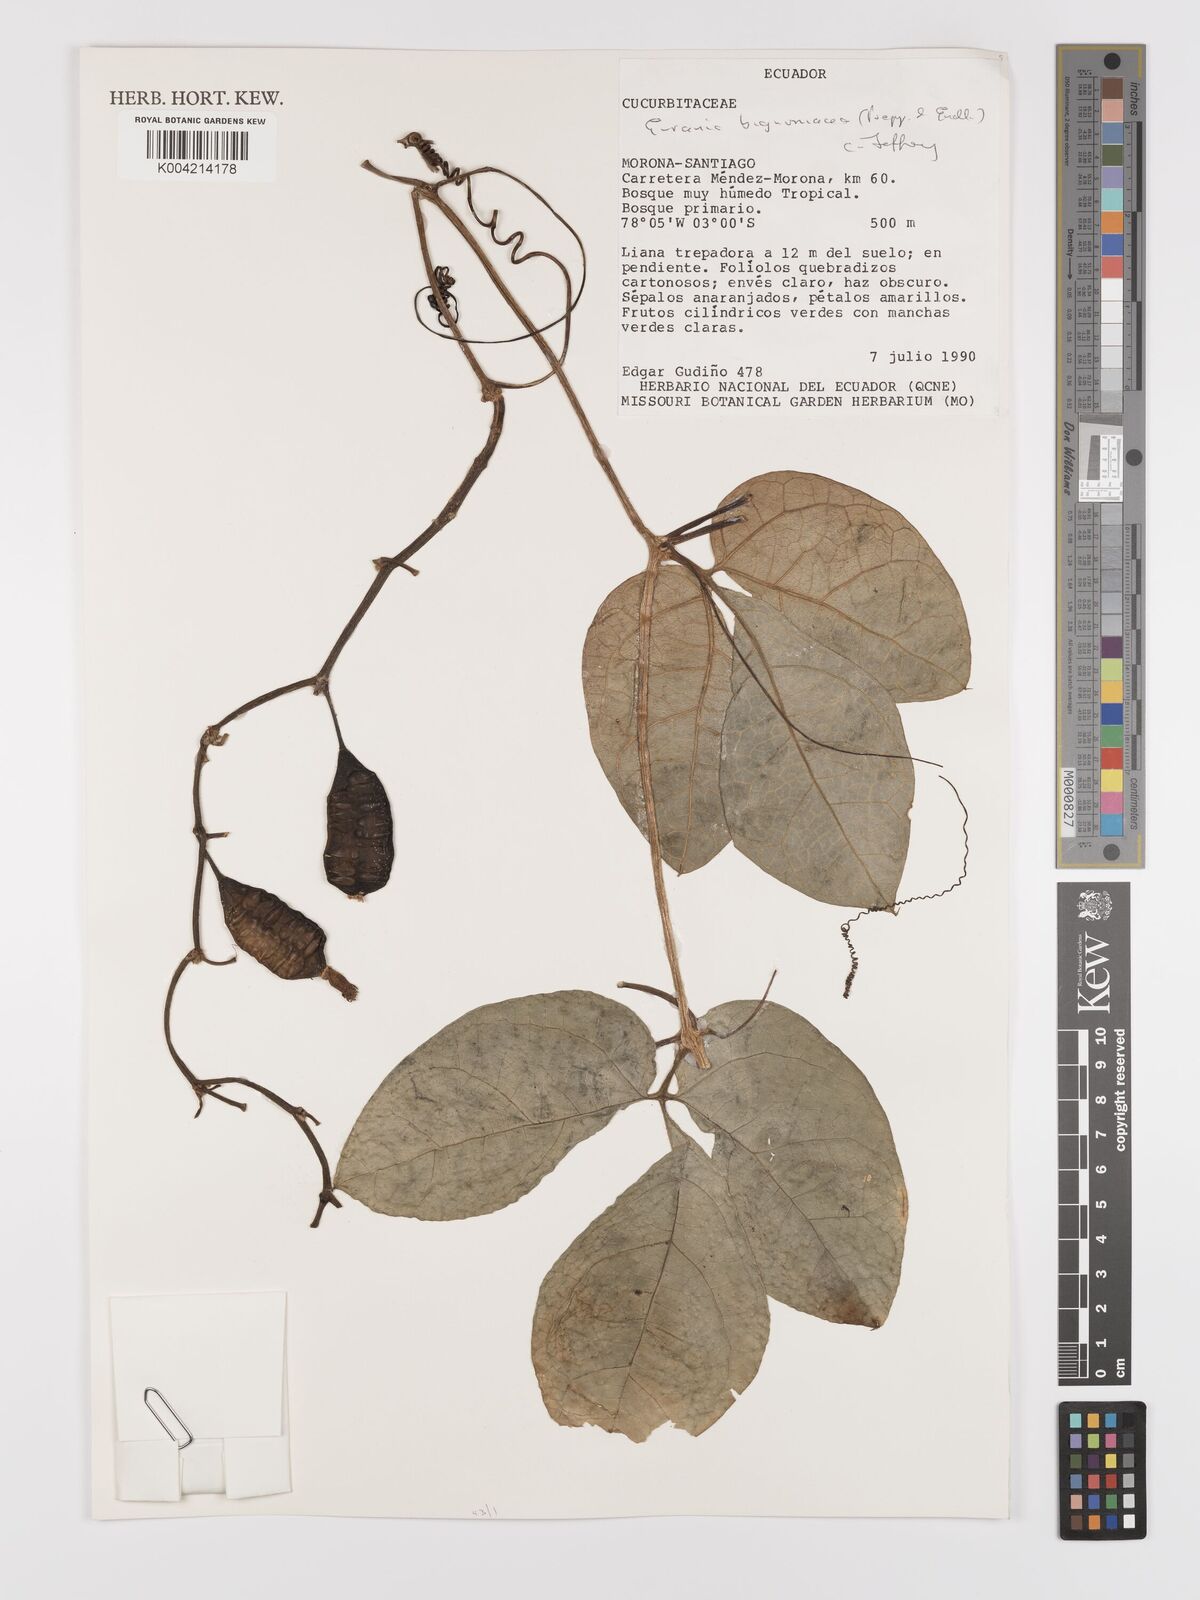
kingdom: Plantae
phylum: Tracheophyta
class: Magnoliopsida
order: Cucurbitales
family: Cucurbitaceae
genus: Gurania
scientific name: Gurania bignoniacea
